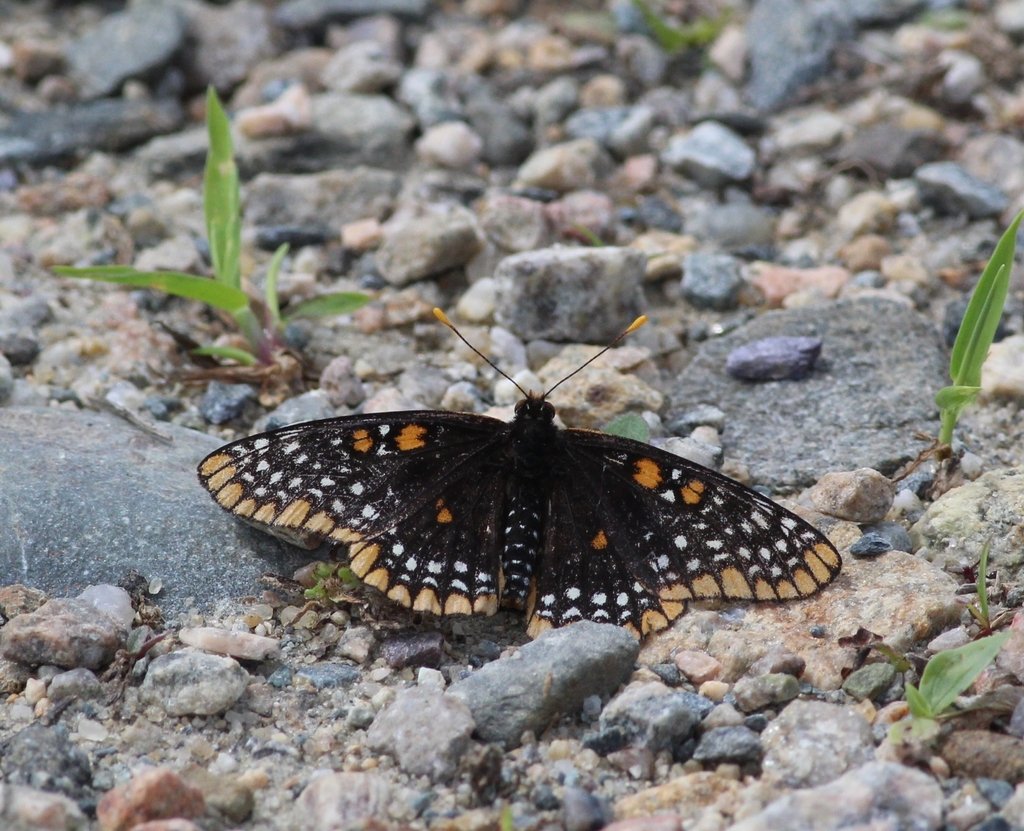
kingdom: Animalia
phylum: Arthropoda
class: Insecta
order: Lepidoptera
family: Nymphalidae
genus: Euphydryas
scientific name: Euphydryas phaeton
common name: Baltimore Checkerspot
